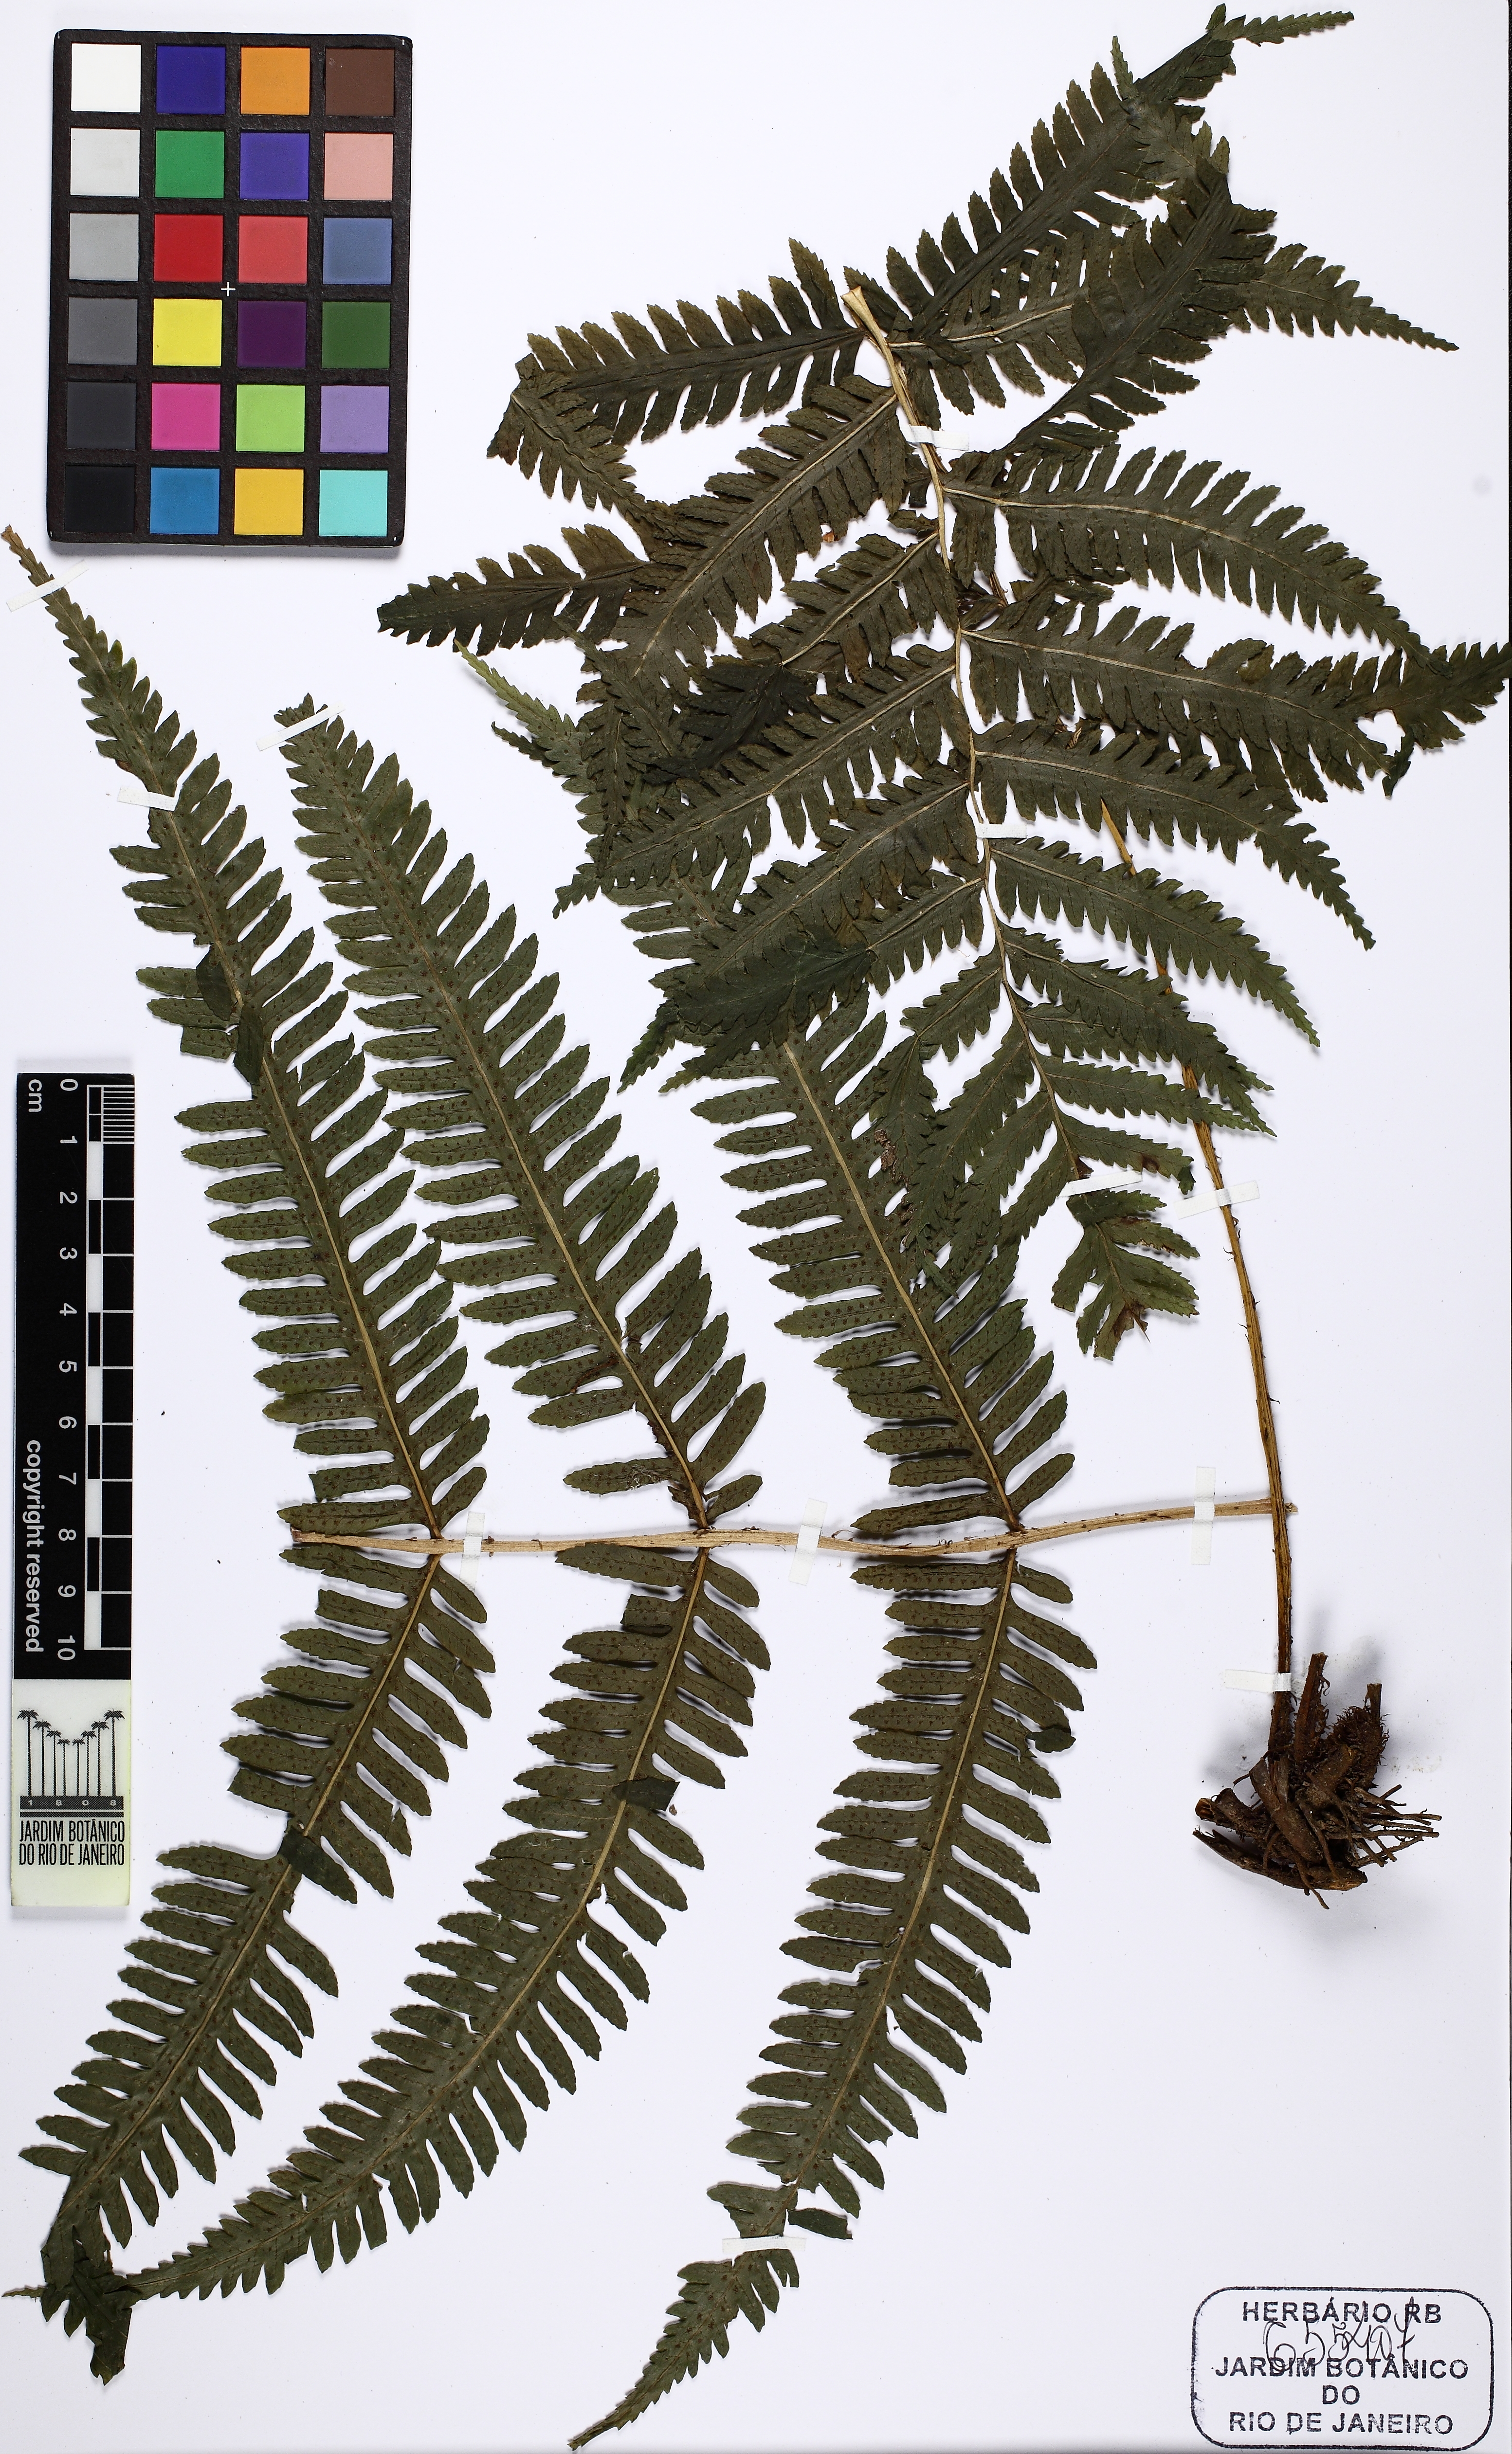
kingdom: Plantae
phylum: Tracheophyta
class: Polypodiopsida
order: Polypodiales
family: Dryopteridaceae
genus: Stigmatopteris
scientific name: Stigmatopteris caudata
